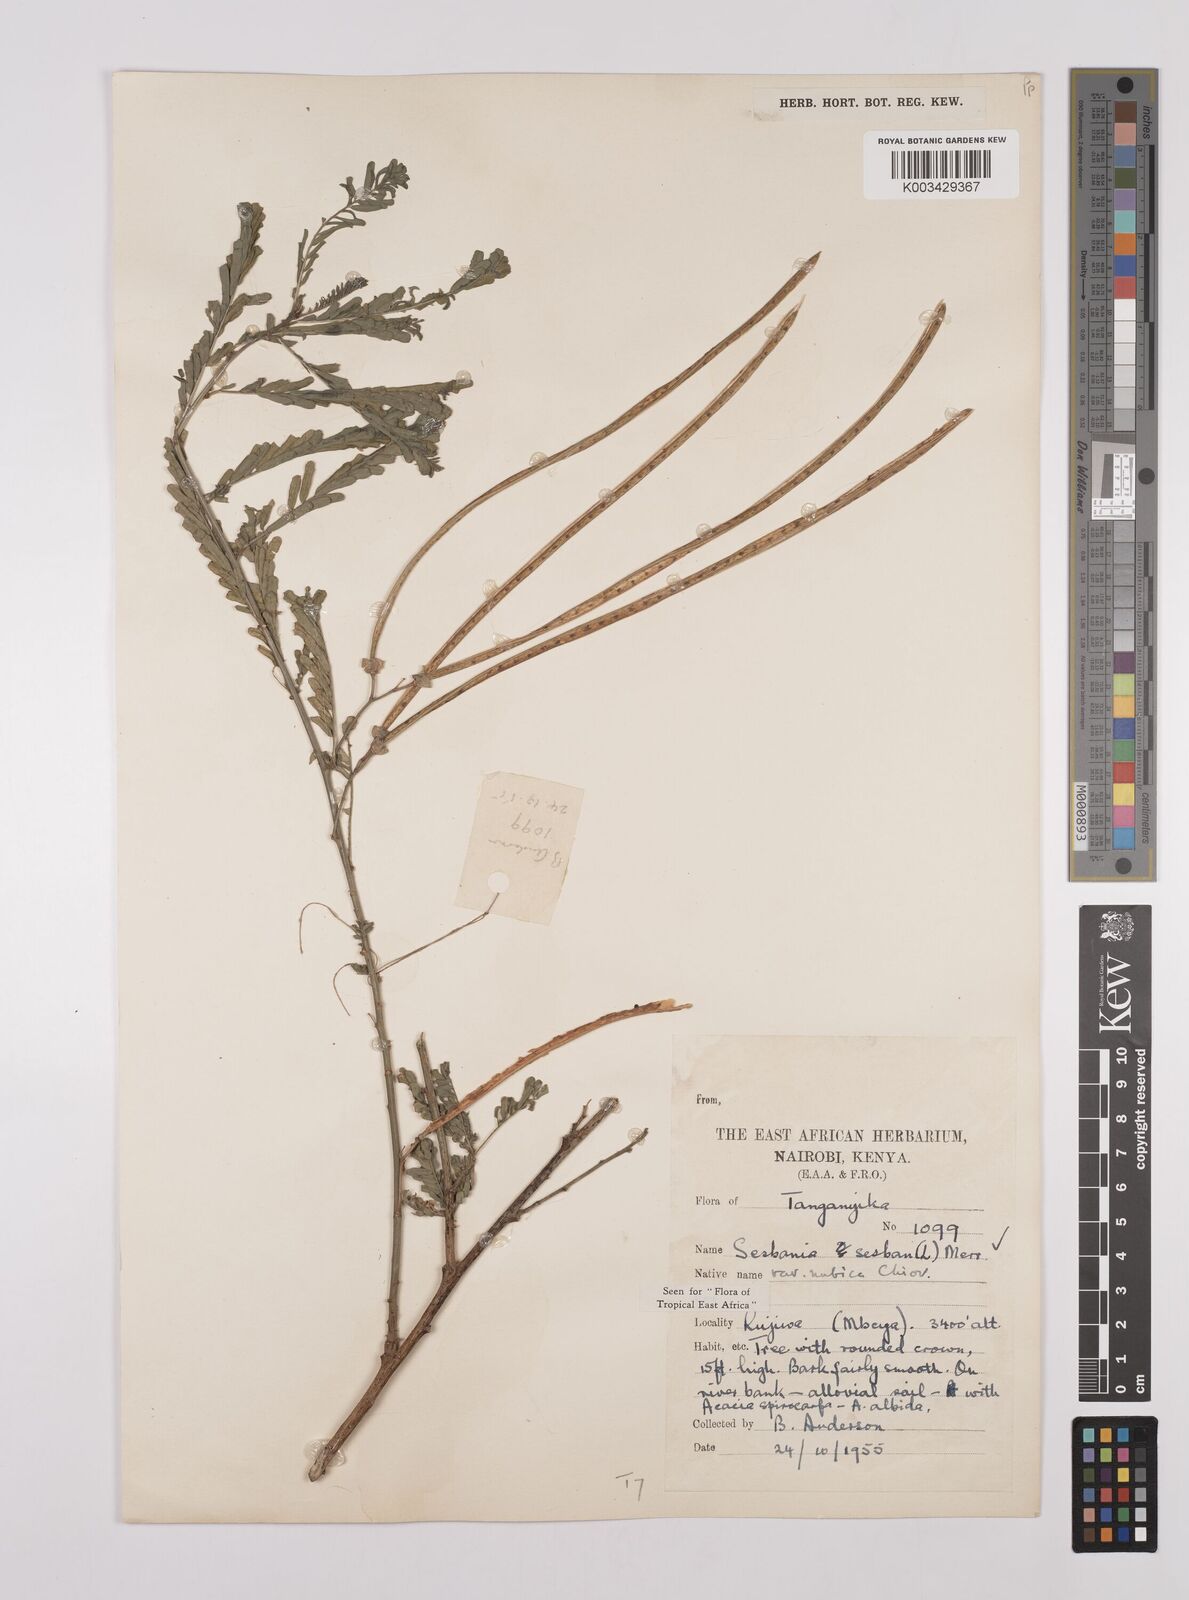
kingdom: Plantae
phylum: Tracheophyta
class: Magnoliopsida
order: Fabales
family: Fabaceae
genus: Sesbania
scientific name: Sesbania sesban
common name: Egyptian sesban
